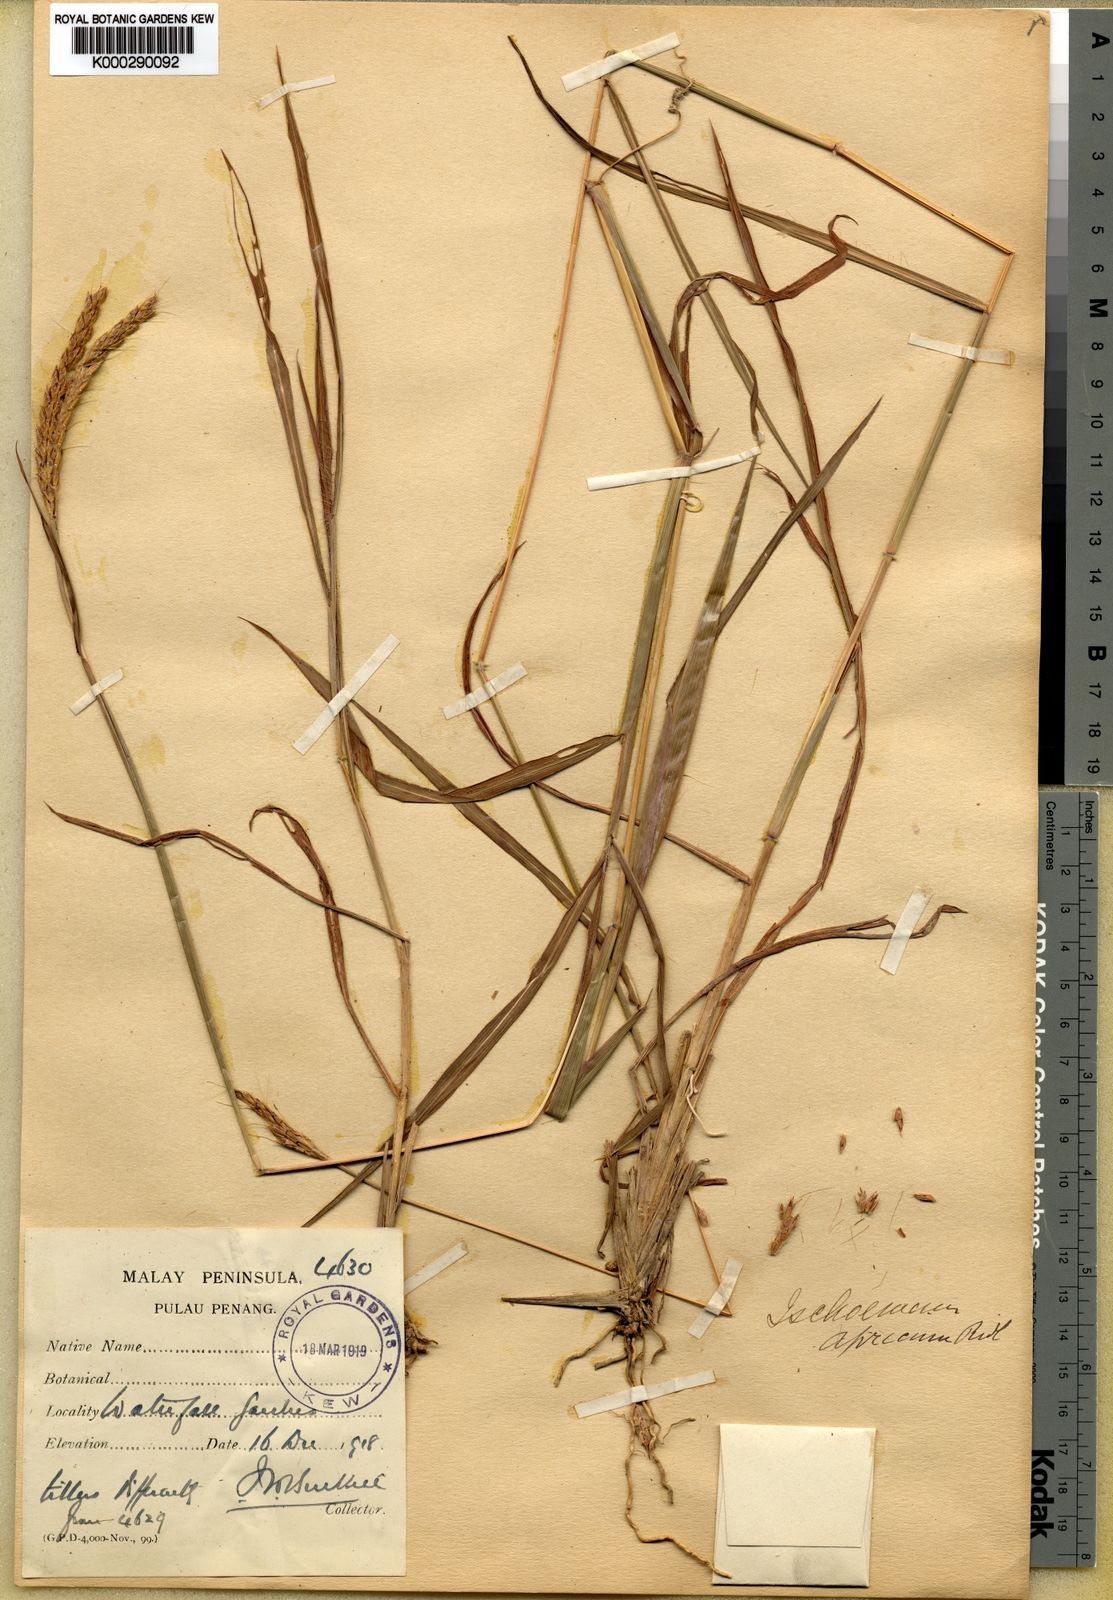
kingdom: Plantae
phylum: Tracheophyta
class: Liliopsida
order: Poales
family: Poaceae
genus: Ischaemum
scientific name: Ischaemum ciliare
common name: Grass
